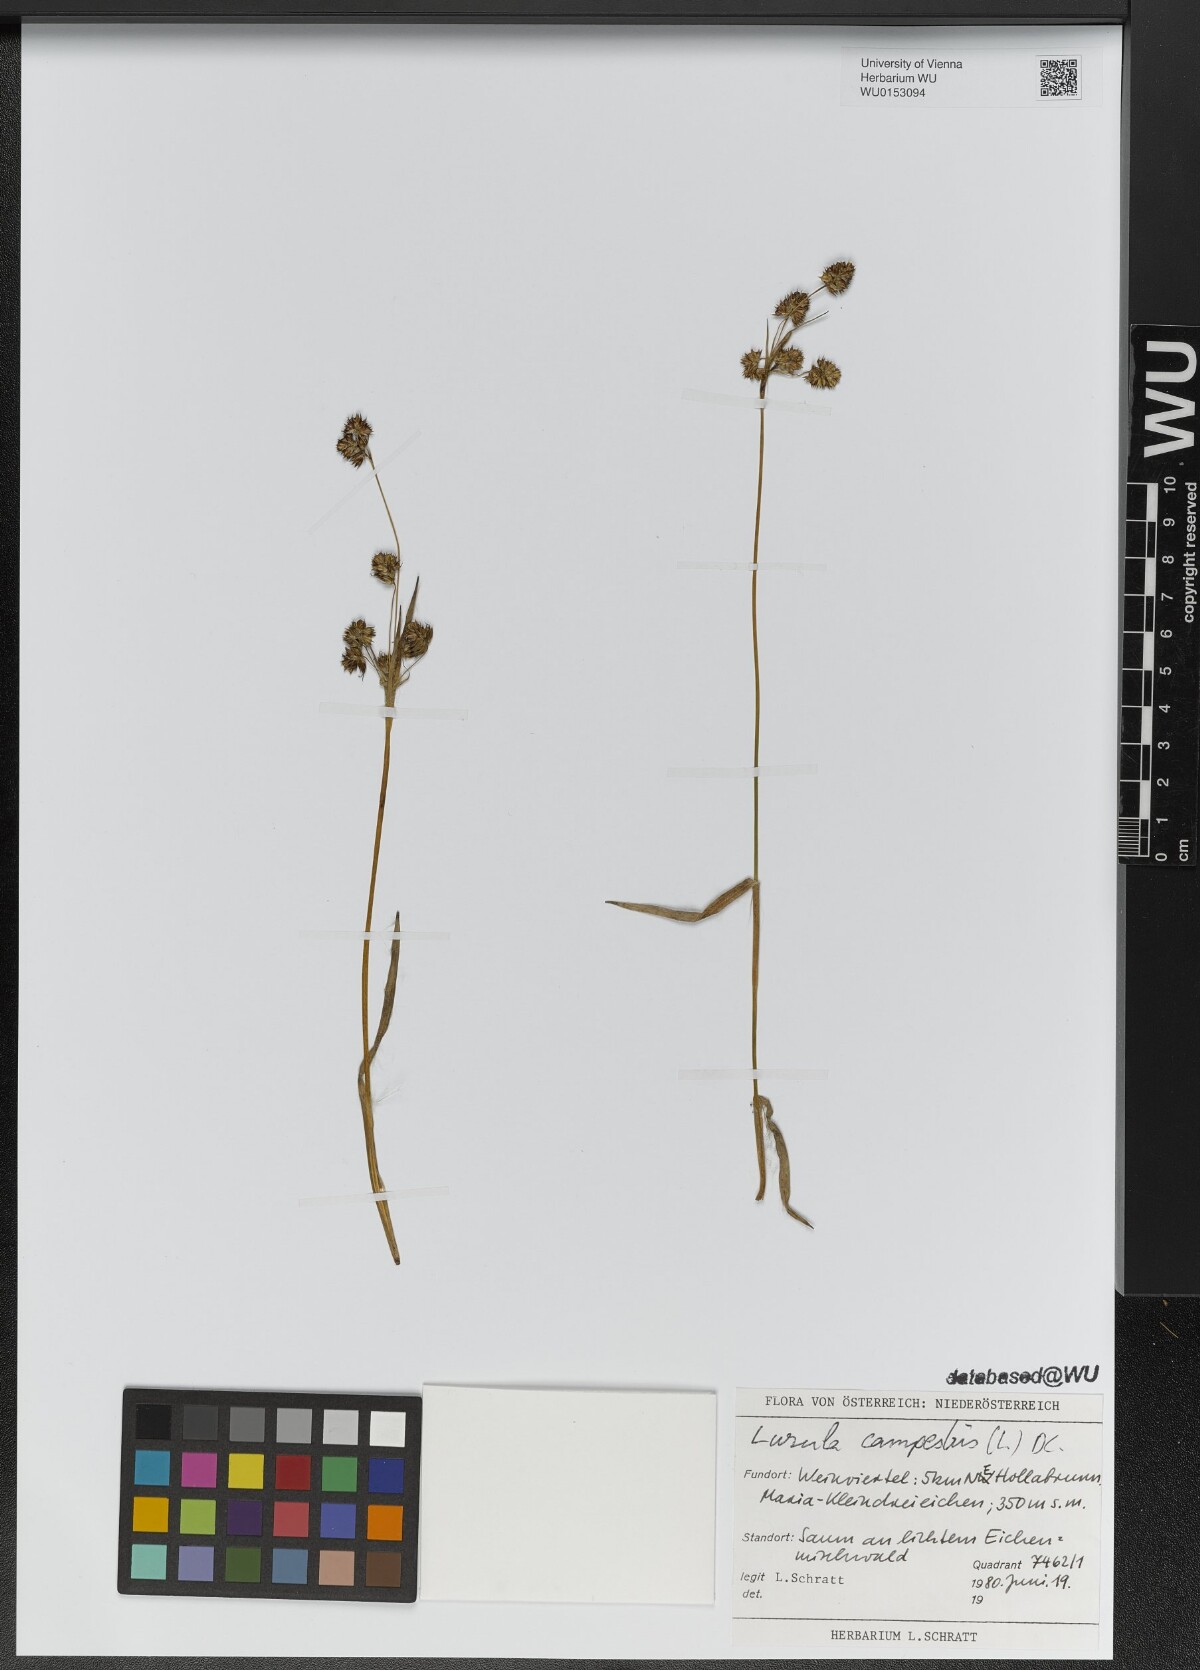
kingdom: Plantae
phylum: Tracheophyta
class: Liliopsida
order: Poales
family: Juncaceae
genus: Luzula
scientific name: Luzula campestris
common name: Field wood-rush
